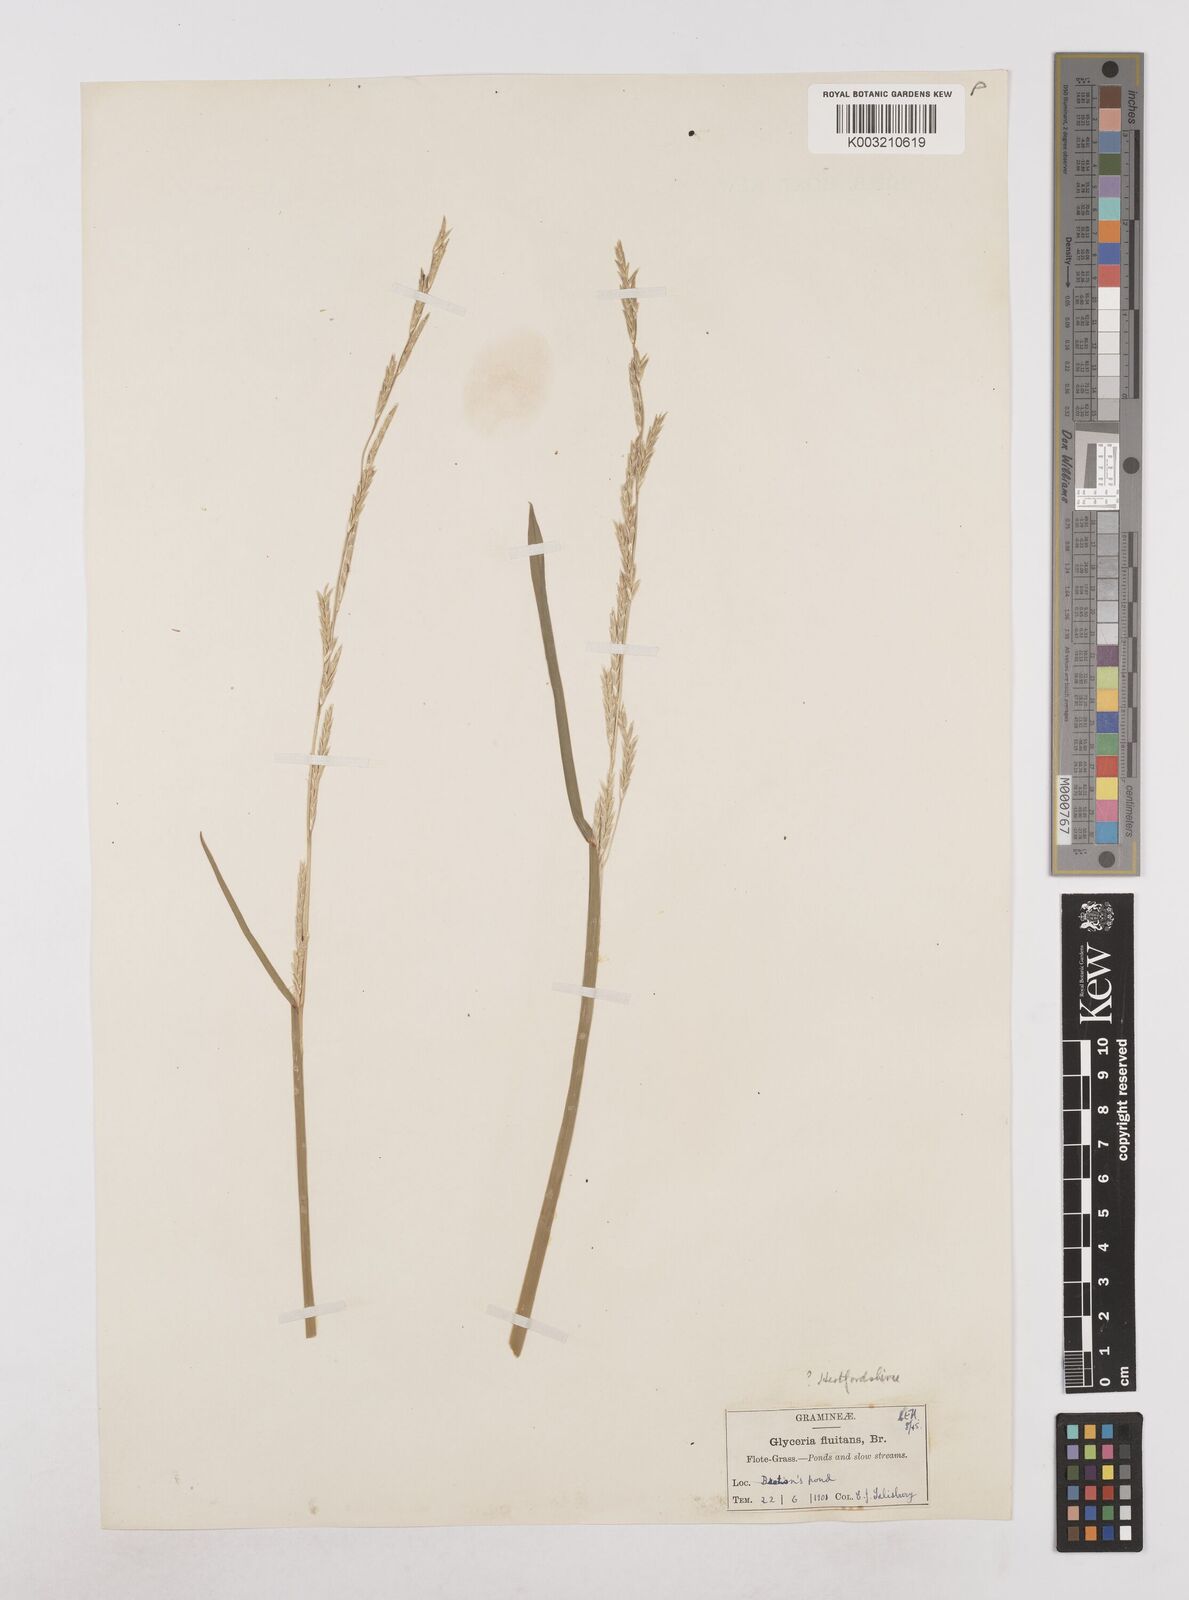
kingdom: Plantae
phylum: Tracheophyta
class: Liliopsida
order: Poales
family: Poaceae
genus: Glyceria
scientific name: Glyceria fluitans
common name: Floating sweet-grass
